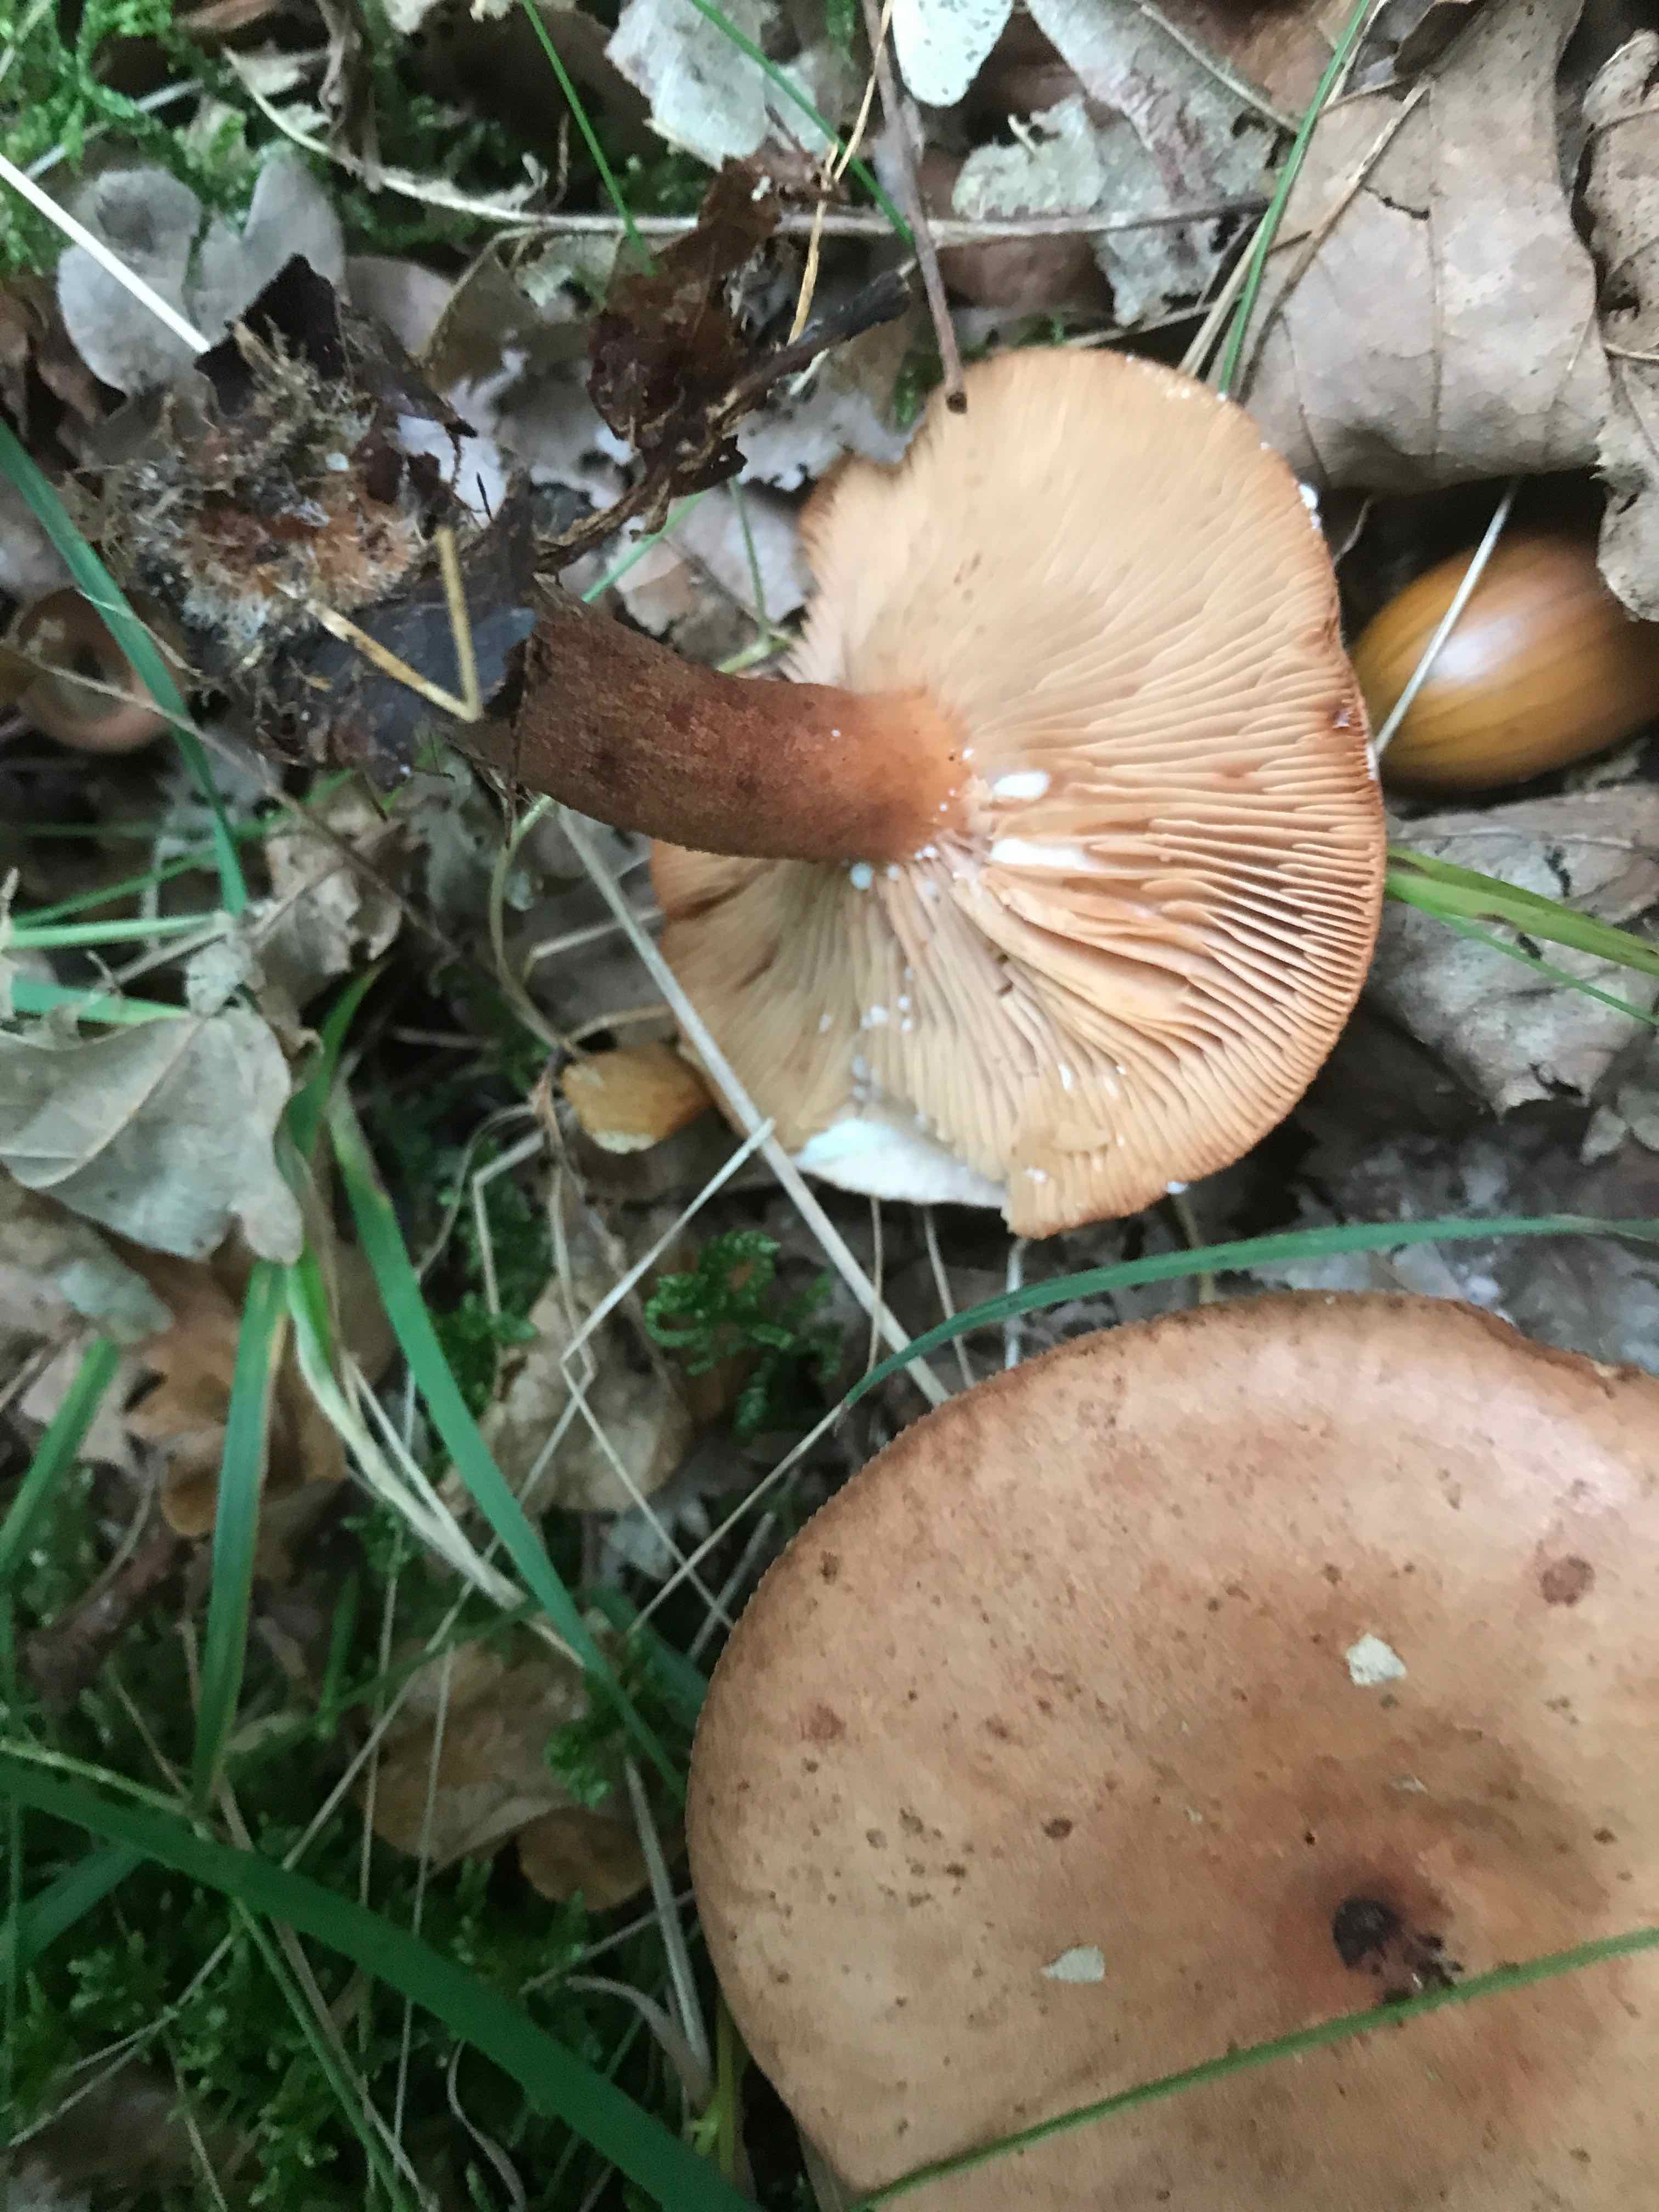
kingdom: Fungi
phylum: Basidiomycota
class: Agaricomycetes
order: Russulales
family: Russulaceae
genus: Lactarius
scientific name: Lactarius quietus
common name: ege-mælkehat
